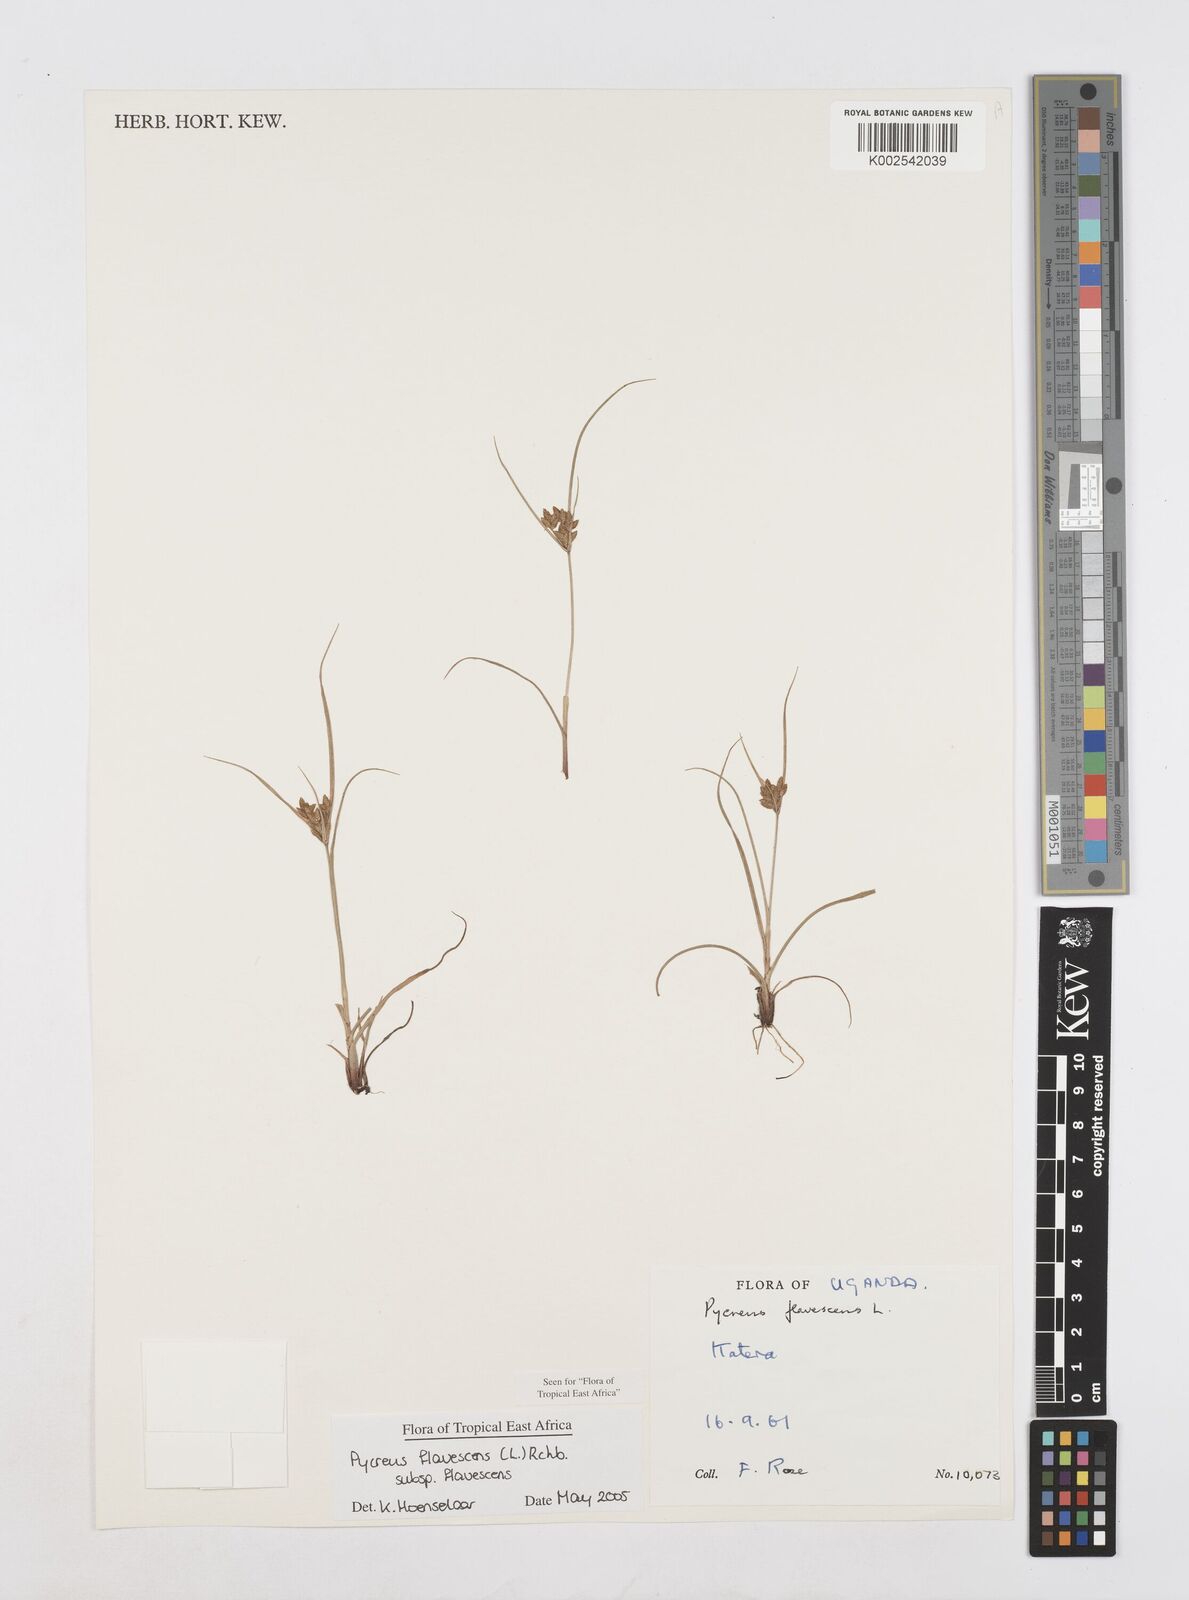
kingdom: Plantae
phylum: Tracheophyta
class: Liliopsida
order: Poales
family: Cyperaceae
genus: Cyperus
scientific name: Cyperus flavescens
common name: Yellow galingale
